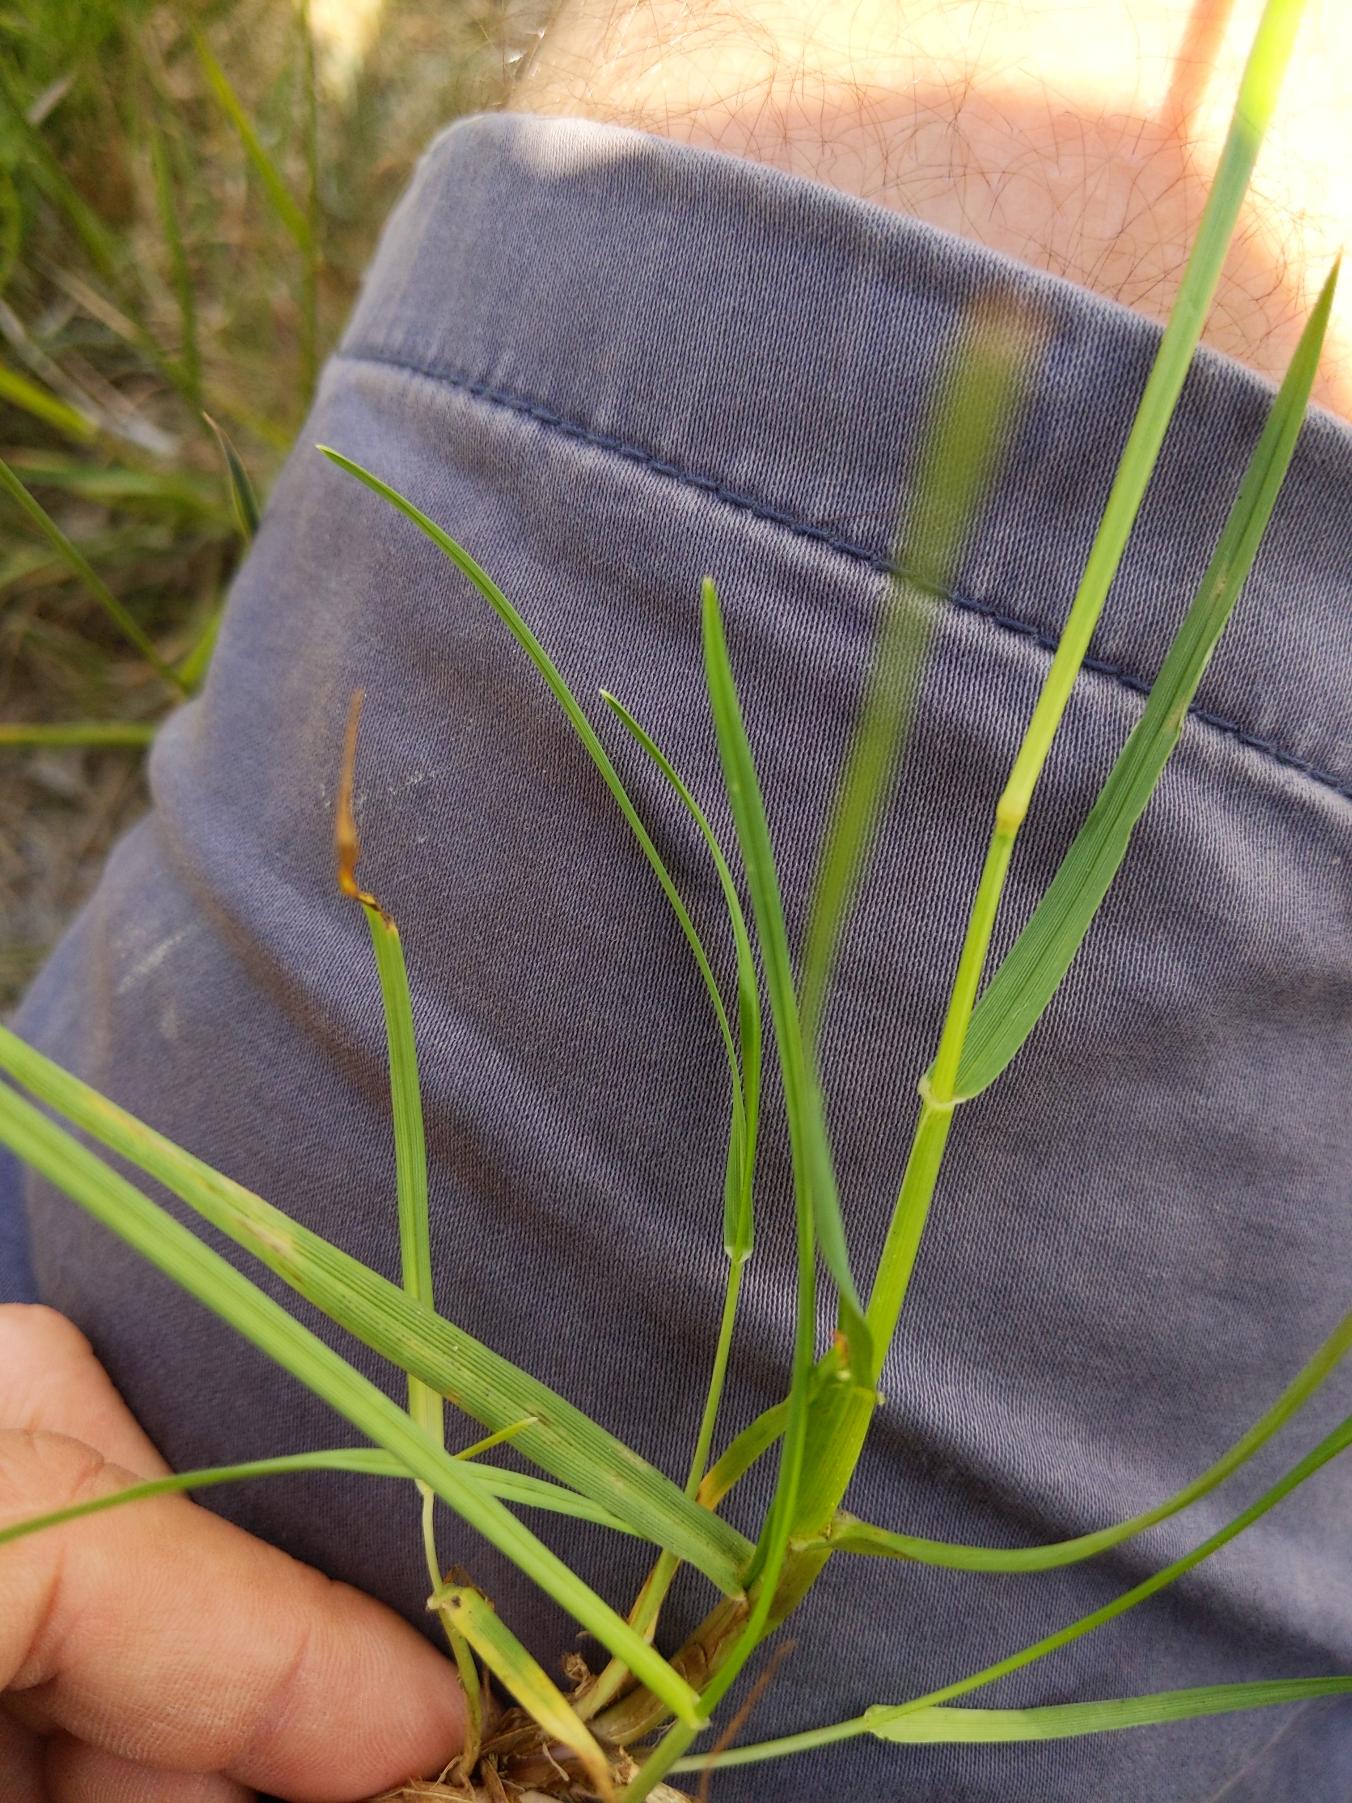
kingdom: Plantae
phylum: Tracheophyta
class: Liliopsida
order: Poales
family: Poaceae
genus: Lolium
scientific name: Lolium perenne
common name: Almindelig rajgræs
